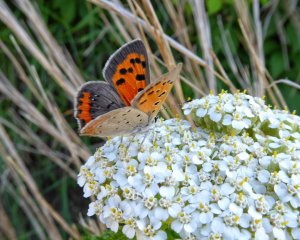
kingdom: Animalia
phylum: Arthropoda
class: Insecta
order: Lepidoptera
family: Lycaenidae
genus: Lycaena
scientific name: Lycaena phlaeas
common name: American Copper
